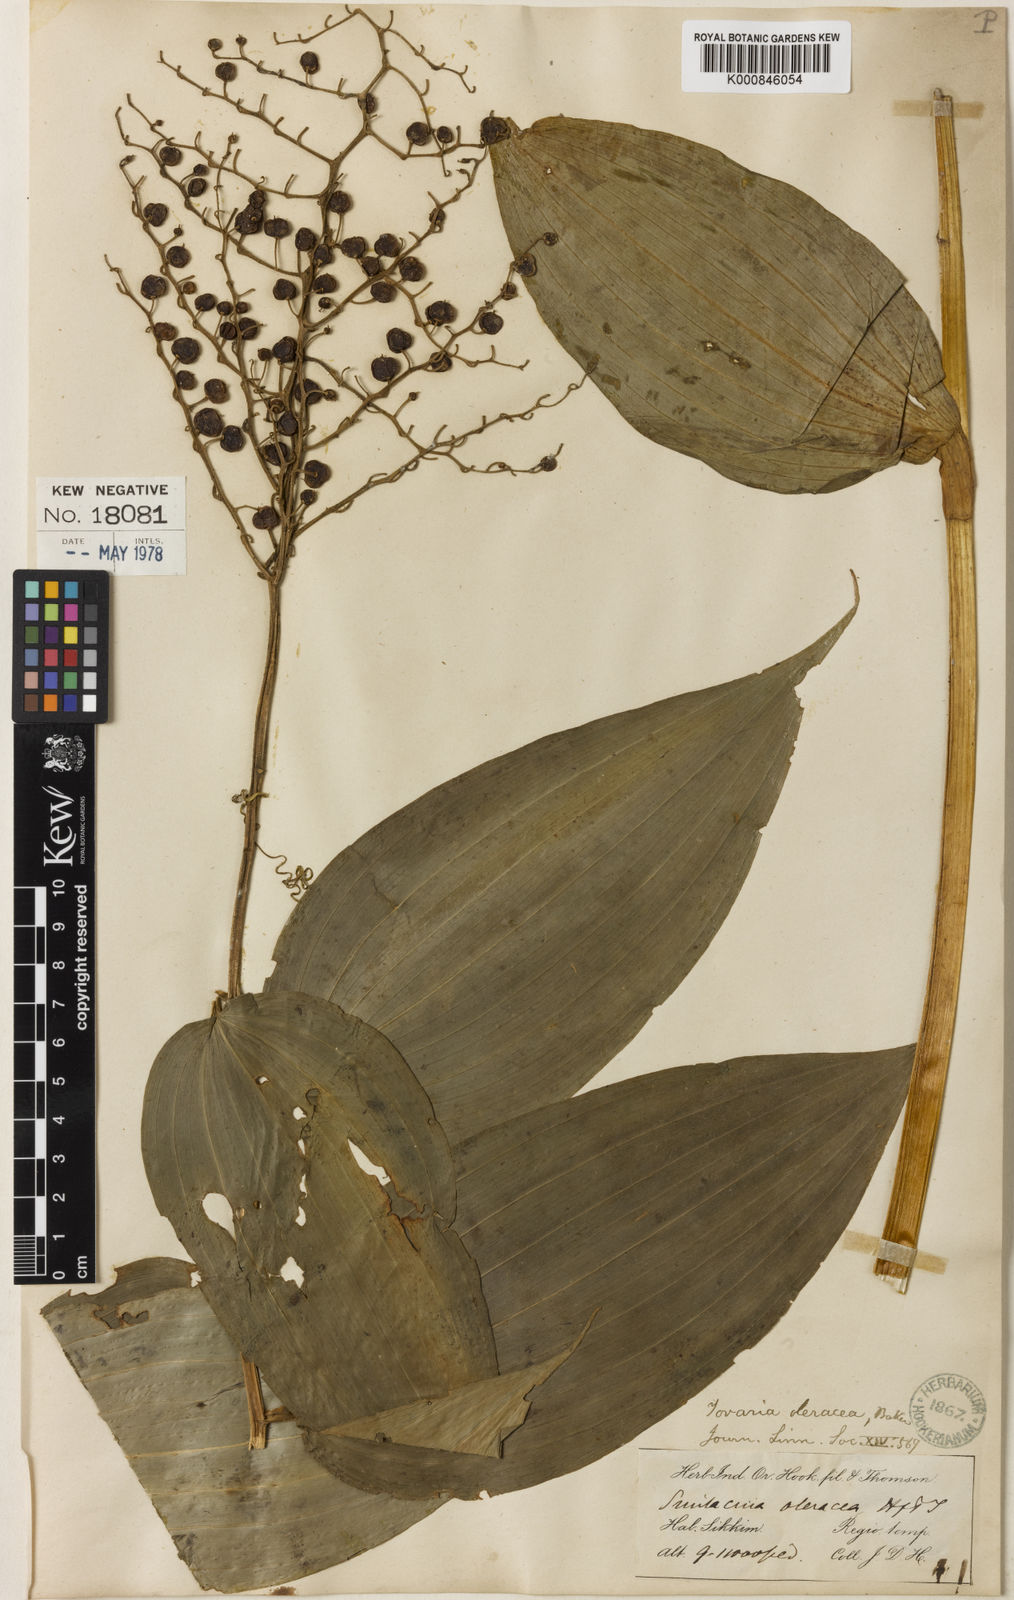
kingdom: Plantae
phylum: Tracheophyta
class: Liliopsida
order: Asparagales
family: Asparagaceae
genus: Maianthemum
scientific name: Maianthemum oleraceum
